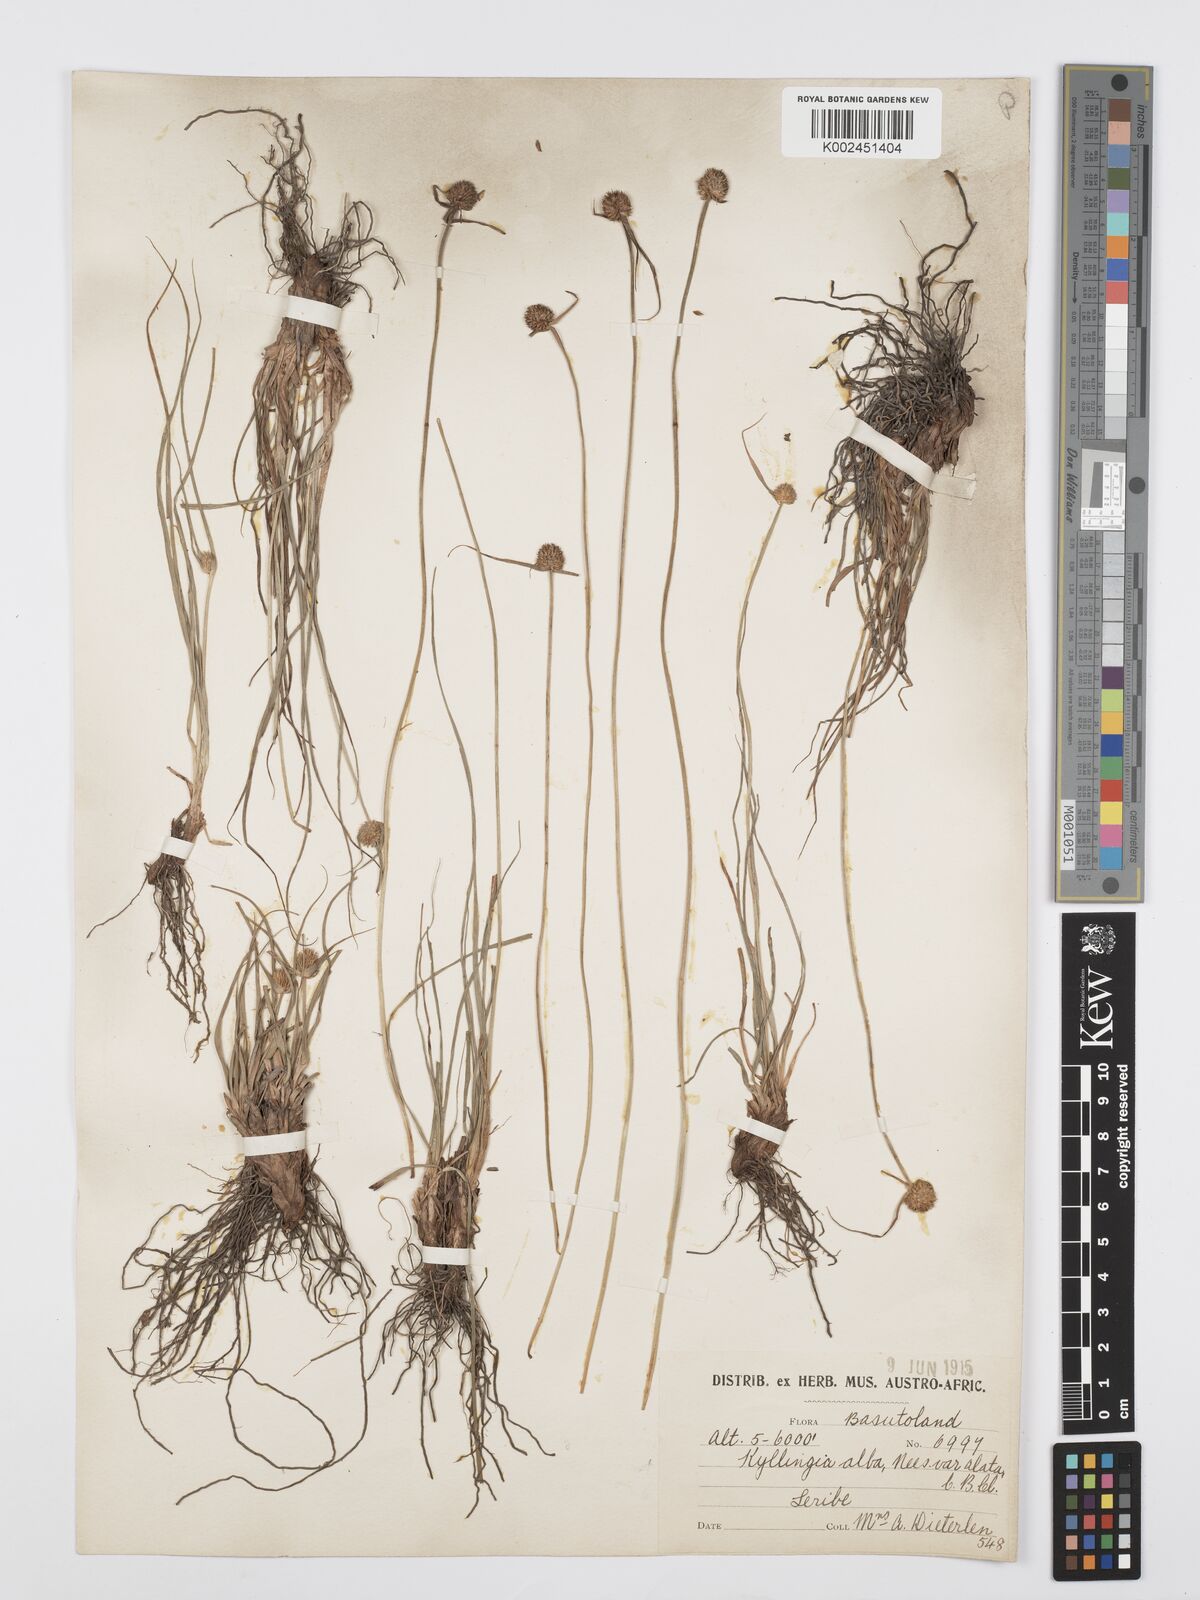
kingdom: Plantae
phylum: Tracheophyta
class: Liliopsida
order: Poales
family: Cyperaceae
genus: Cyperus
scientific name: Cyperus alatus
